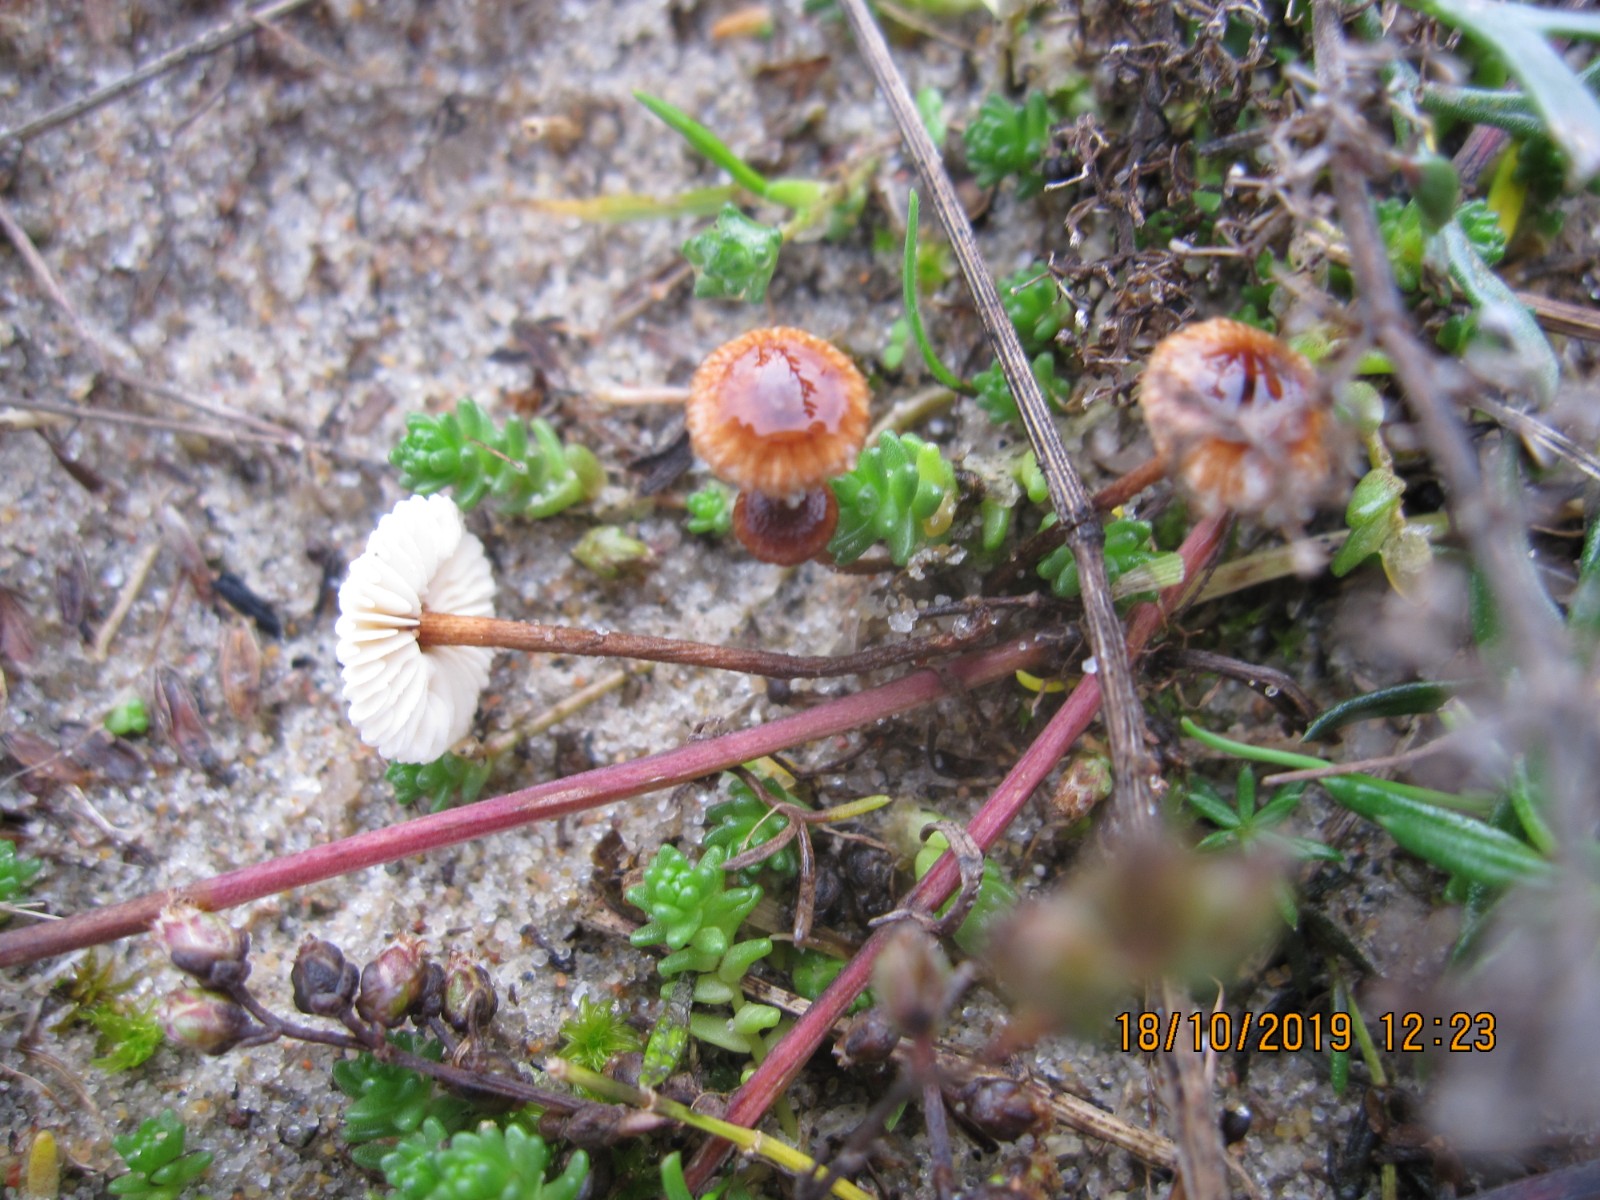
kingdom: Fungi
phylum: Basidiomycota
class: Agaricomycetes
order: Agaricales
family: Marasmiaceae
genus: Crinipellis
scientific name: Crinipellis scabella
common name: børstefod
